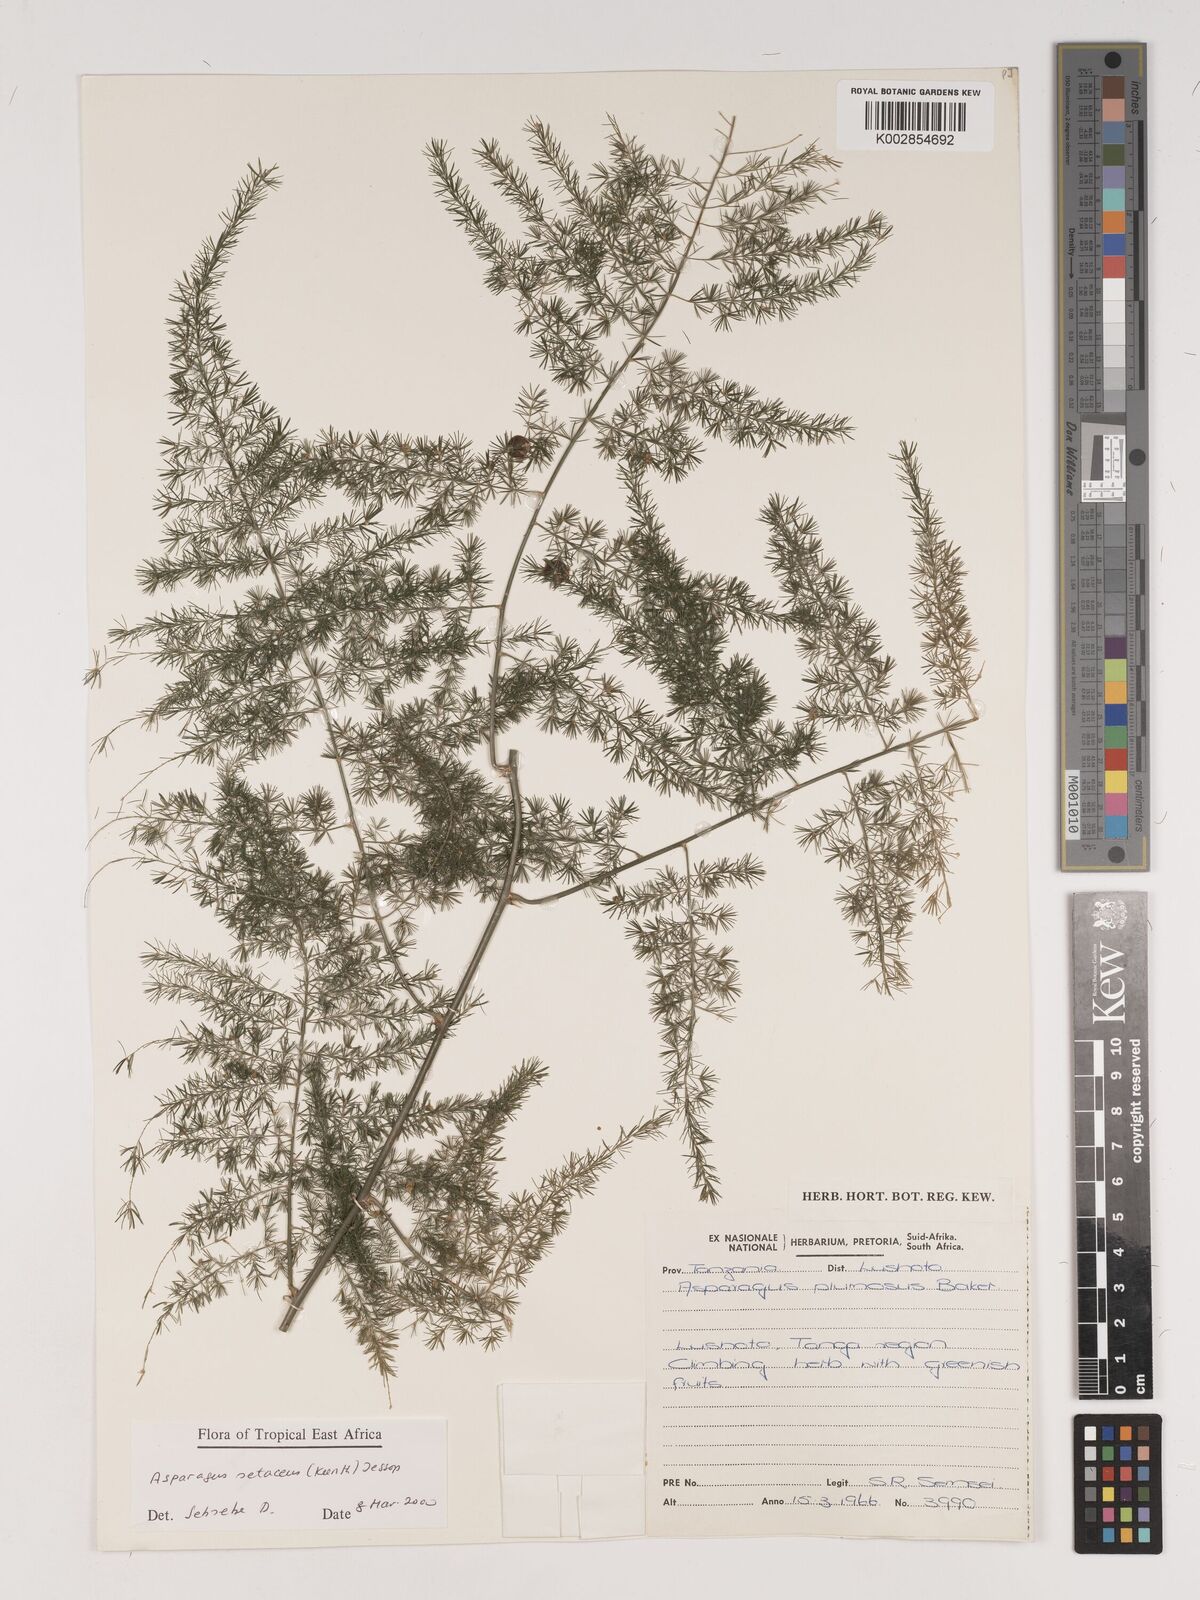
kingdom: Plantae
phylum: Tracheophyta
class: Liliopsida
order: Asparagales
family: Asparagaceae
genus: Asparagus
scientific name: Asparagus setaceus
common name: Common asparagus fern
